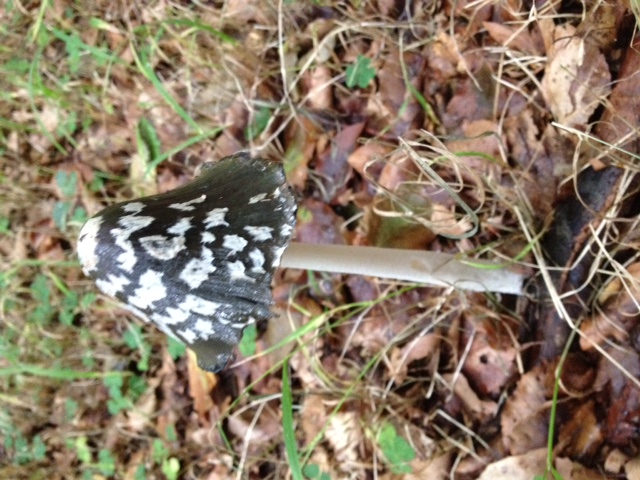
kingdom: Fungi
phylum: Basidiomycota
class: Agaricomycetes
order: Agaricales
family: Psathyrellaceae
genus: Coprinopsis
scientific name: Coprinopsis picacea
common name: skade-blækhat
